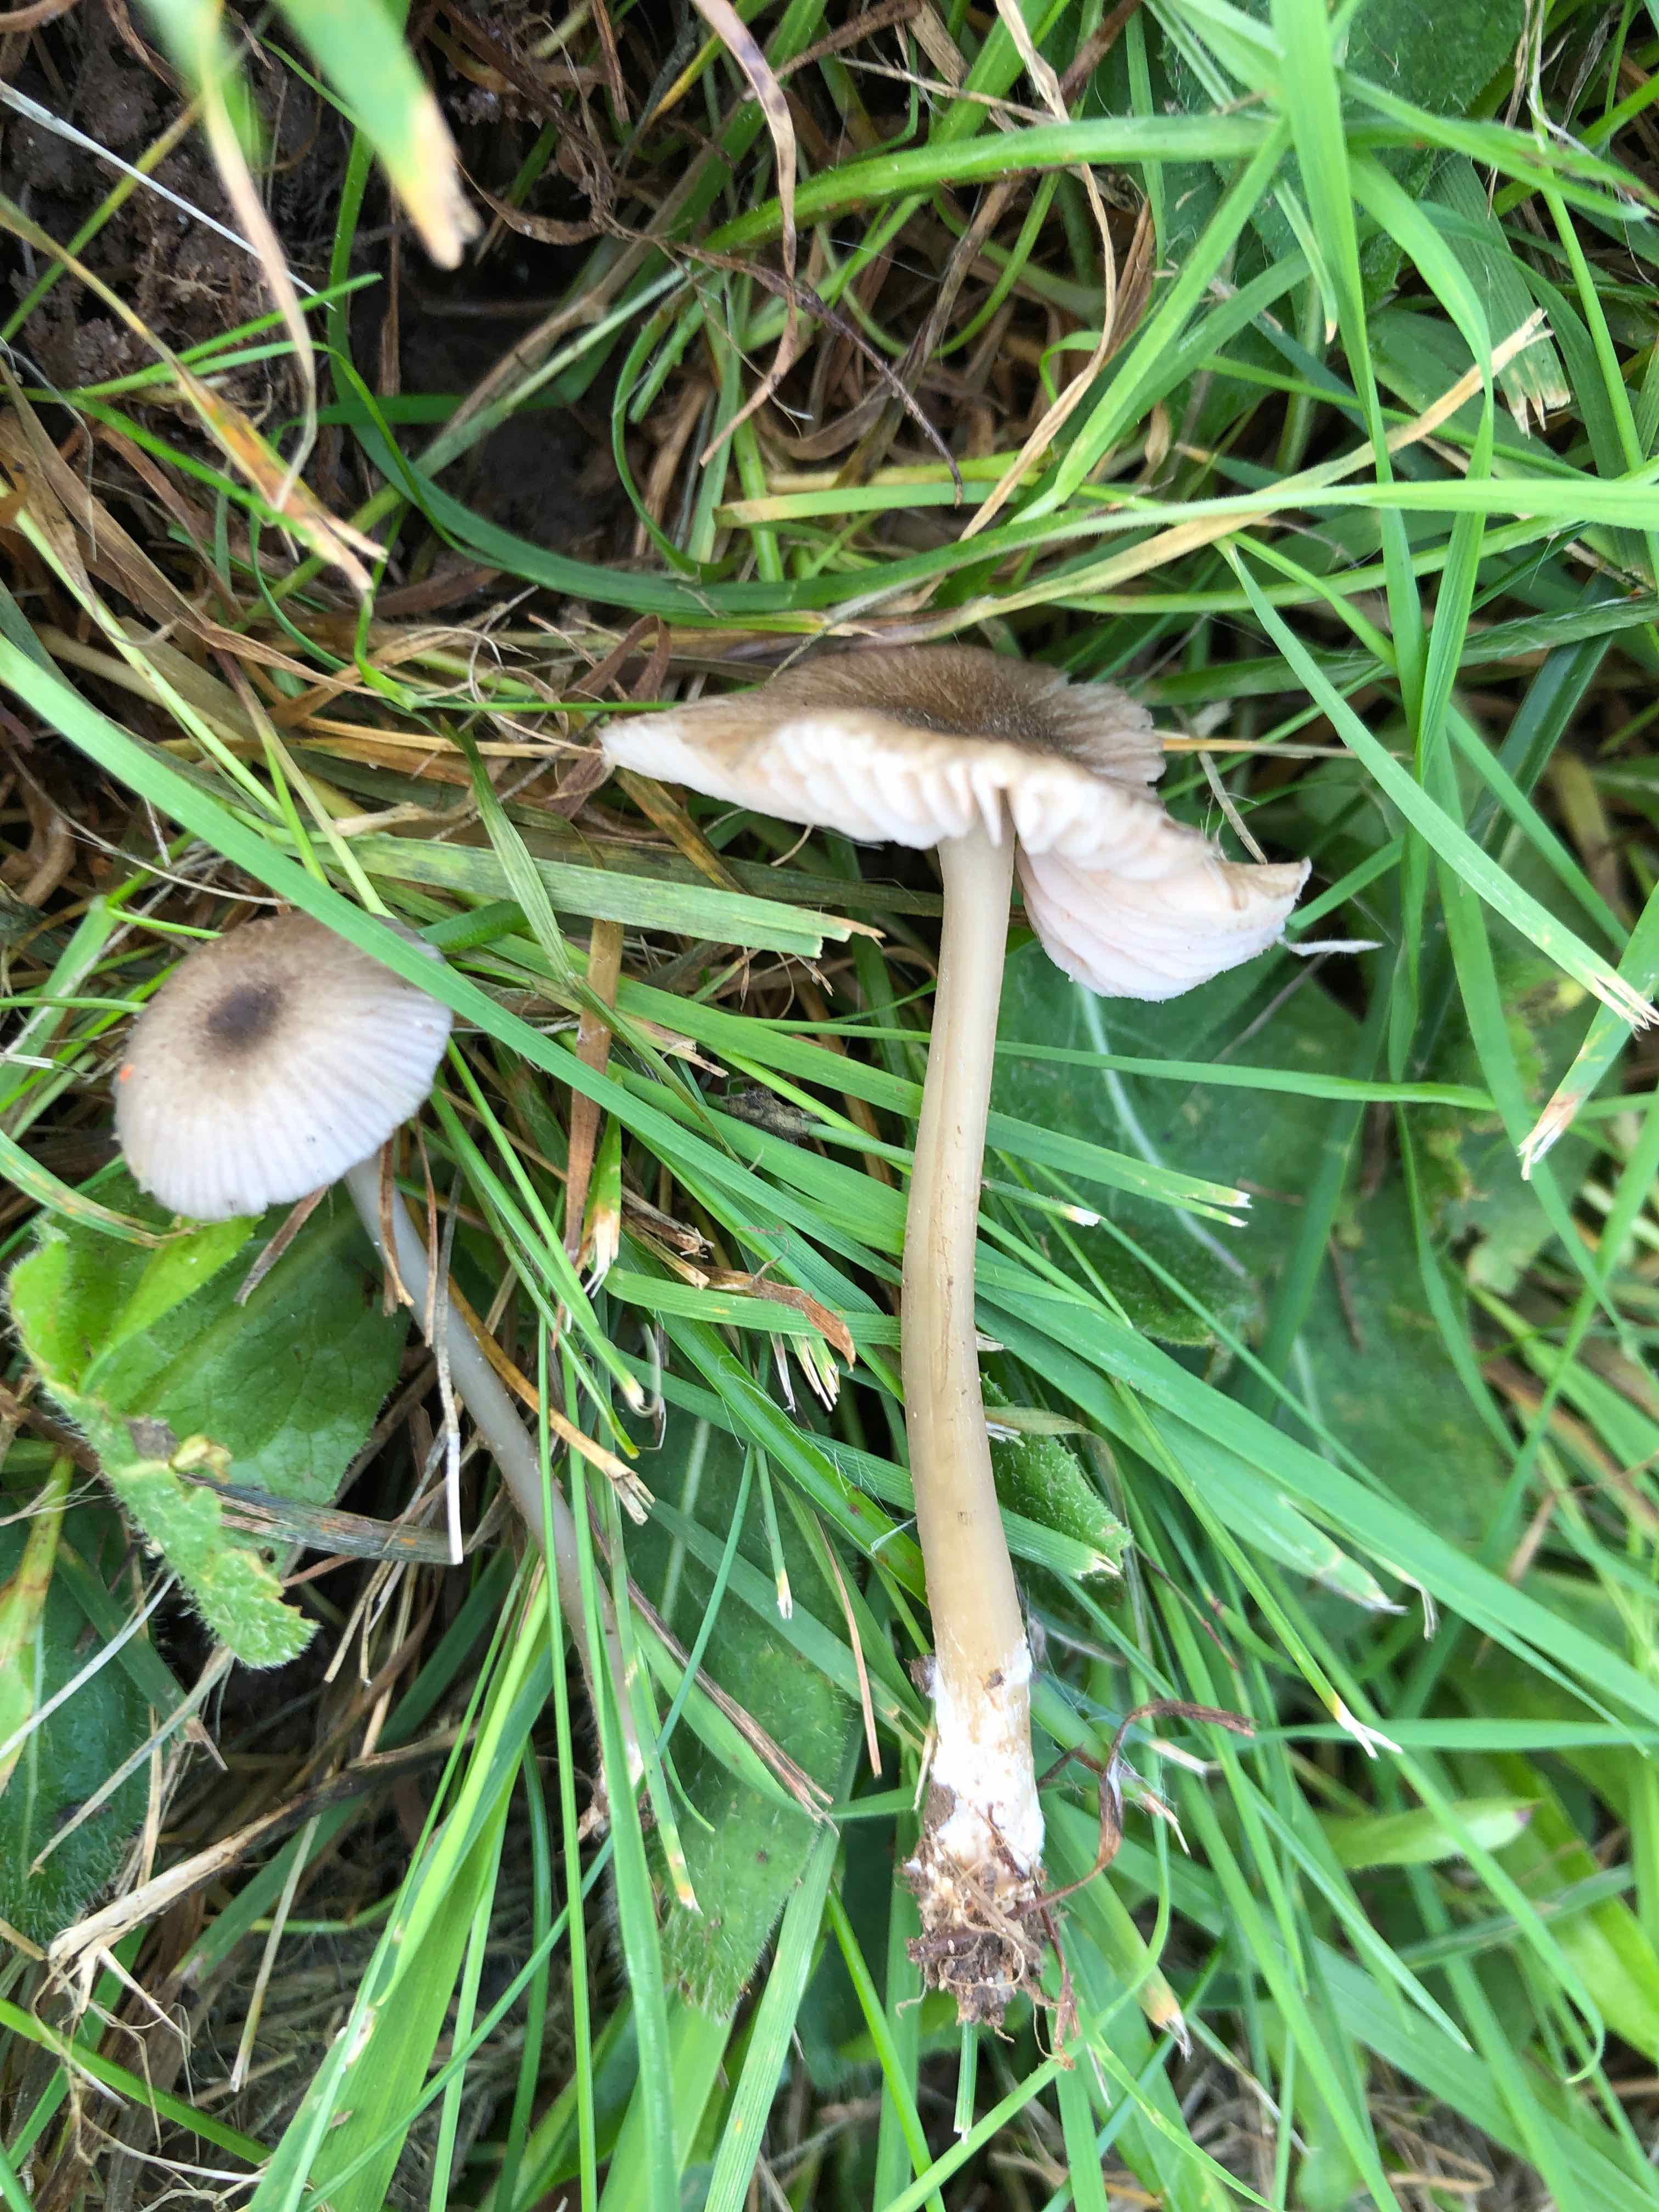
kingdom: Fungi
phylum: Basidiomycota
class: Agaricomycetes
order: Agaricales
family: Entolomataceae
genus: Entoloma
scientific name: Entoloma exile
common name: rødplettet rødblad
